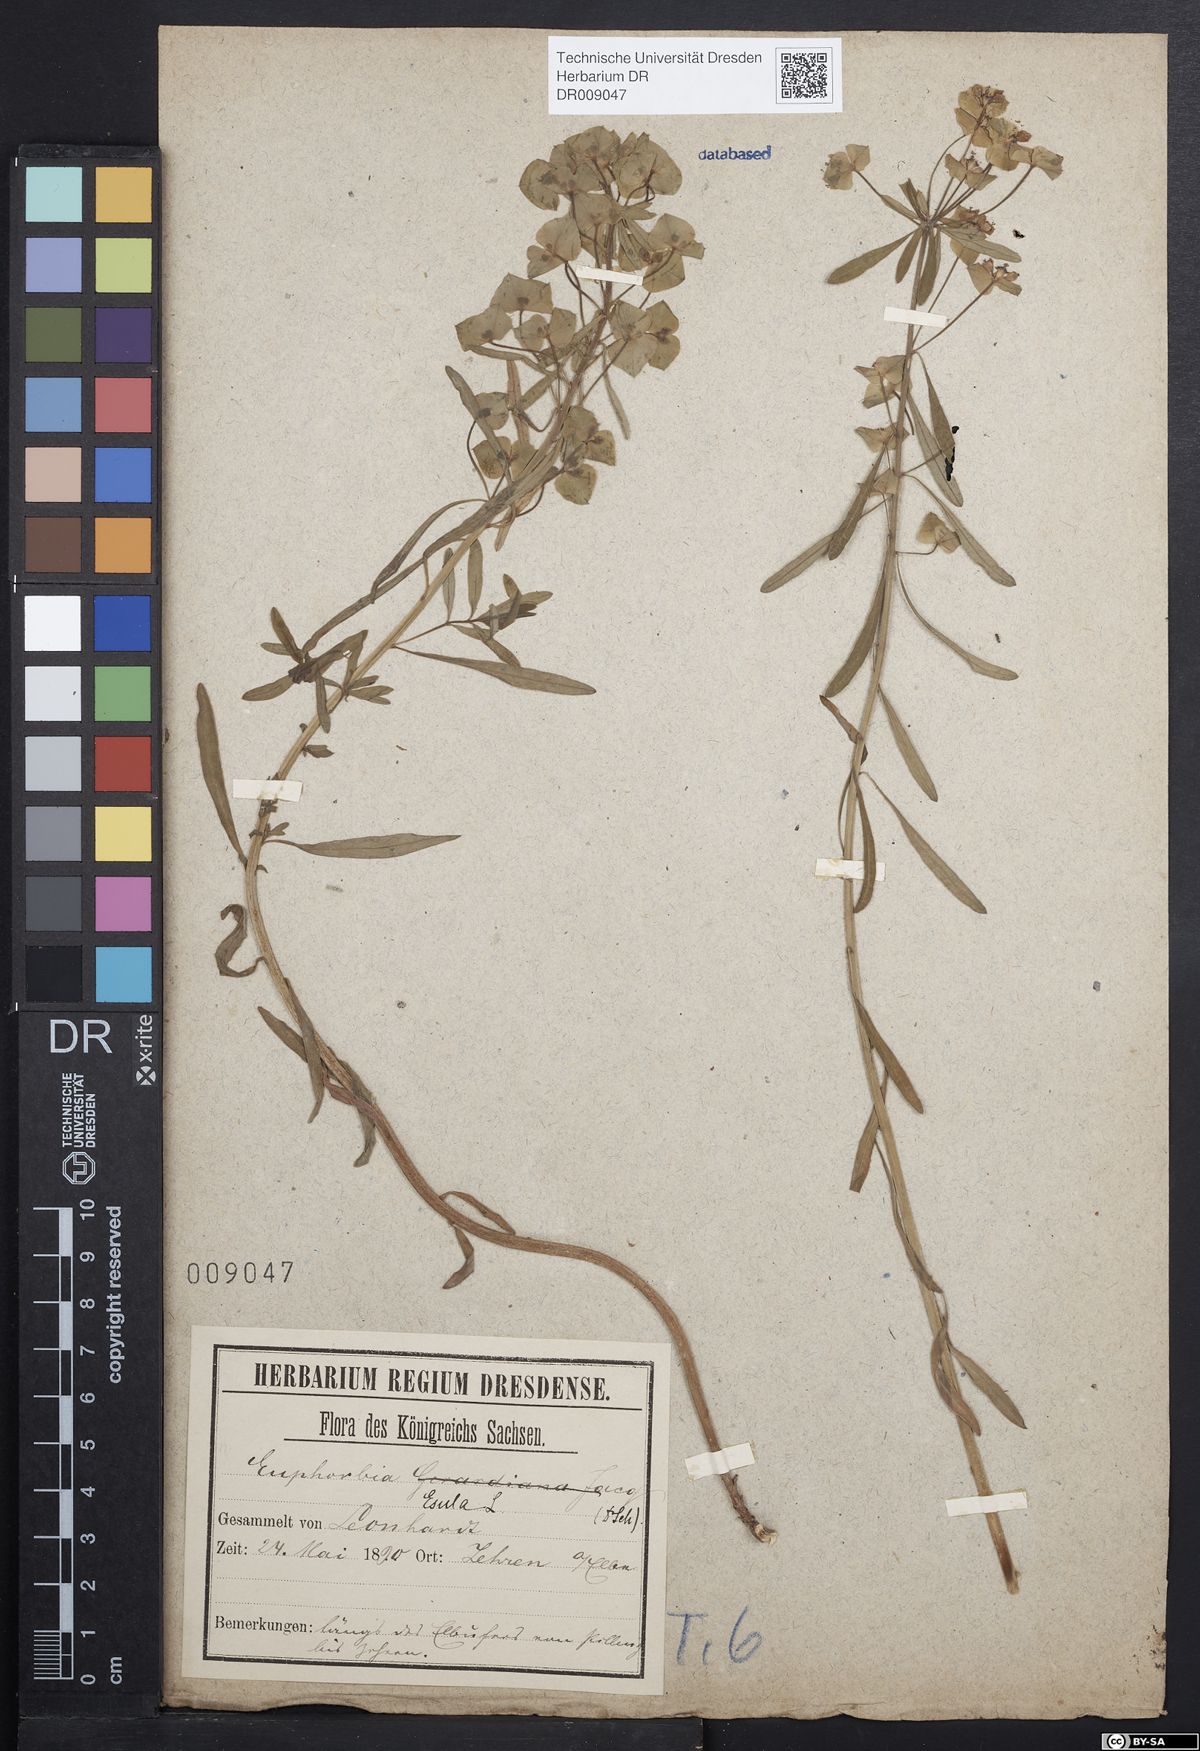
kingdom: Plantae
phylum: Tracheophyta
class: Magnoliopsida
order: Malpighiales
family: Euphorbiaceae
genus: Euphorbia
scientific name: Euphorbia esula
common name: Leafy spurge
